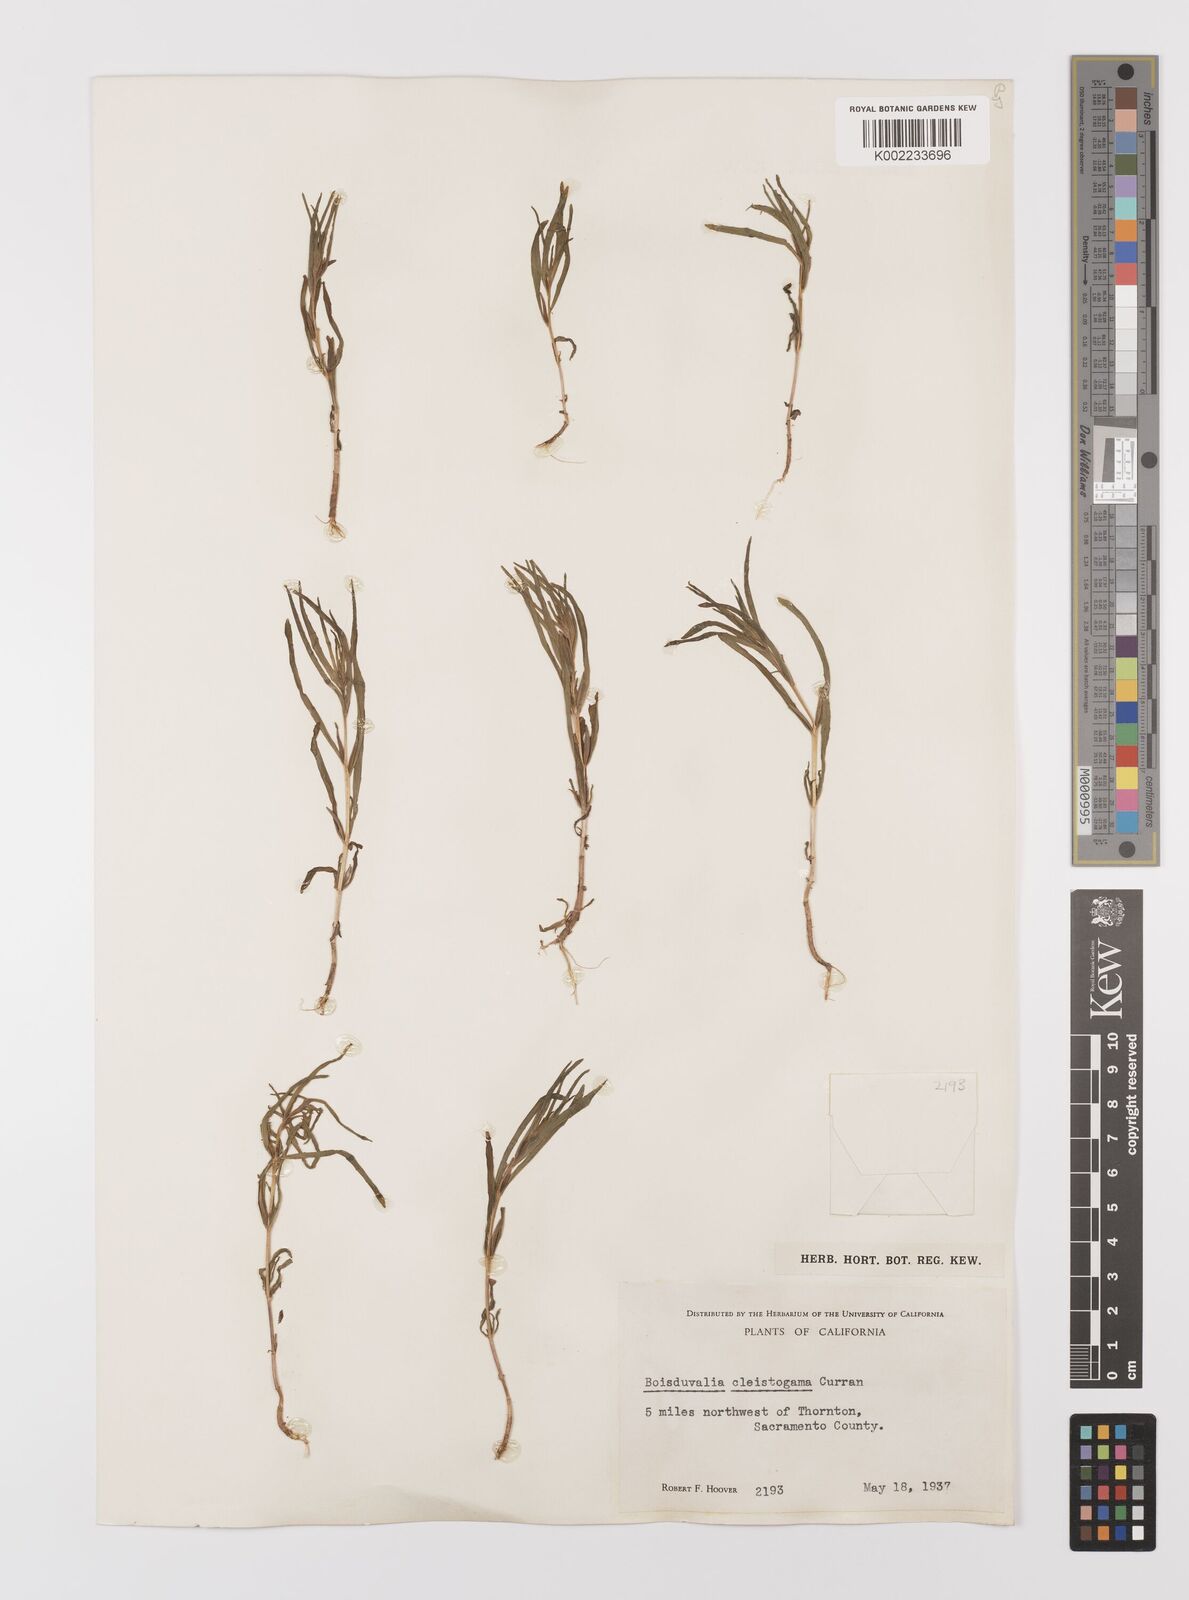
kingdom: Plantae
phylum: Tracheophyta
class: Magnoliopsida
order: Myrtales
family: Onagraceae
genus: Epilobium
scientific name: Epilobium cleistogamum
